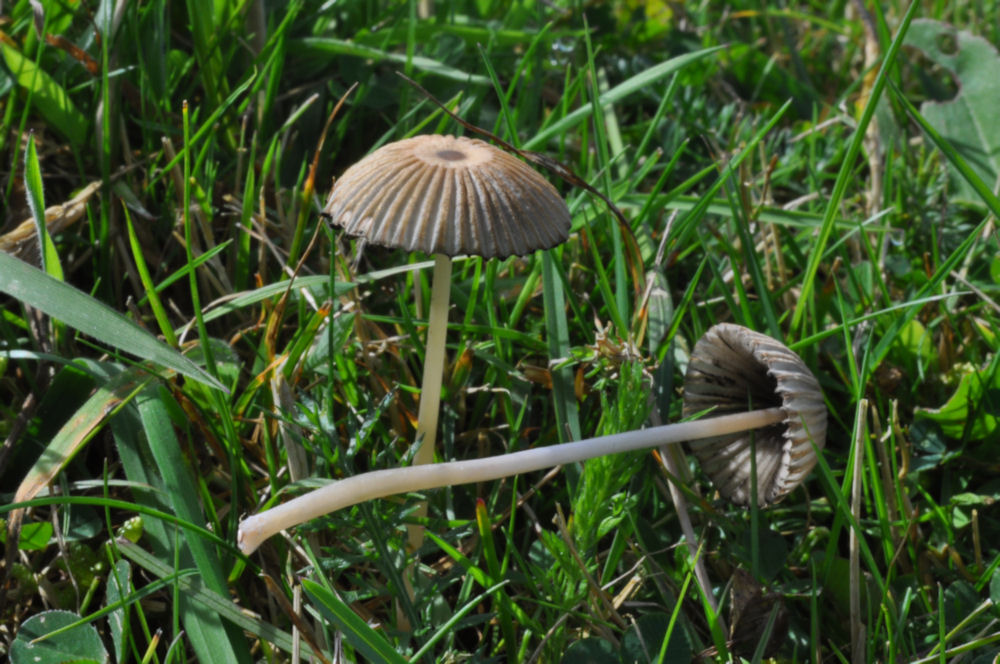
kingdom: Fungi
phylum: Basidiomycota
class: Agaricomycetes
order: Agaricales
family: Psathyrellaceae
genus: Parasola
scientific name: Parasola plicatilis
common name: plæne-hjulhat
